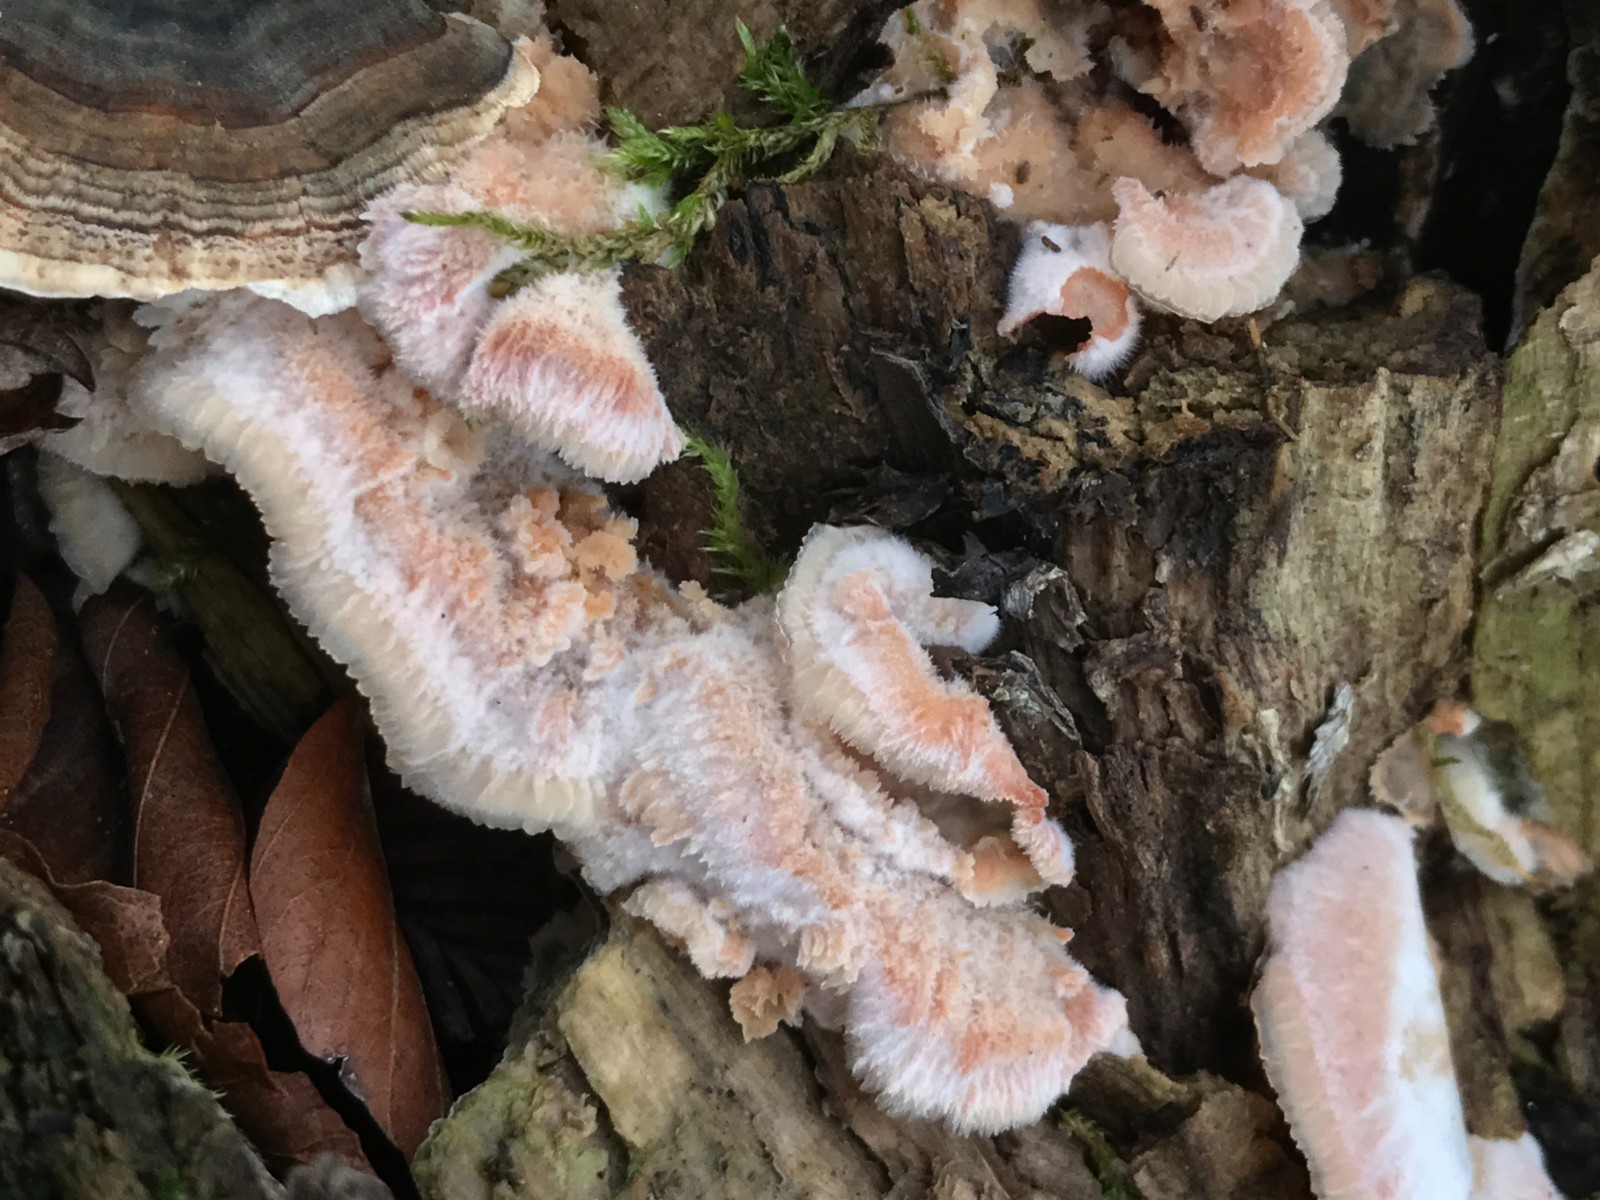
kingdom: Fungi
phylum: Basidiomycota
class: Agaricomycetes
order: Polyporales
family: Meruliaceae
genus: Phlebia
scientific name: Phlebia tremellosa
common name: bævrende åresvamp
